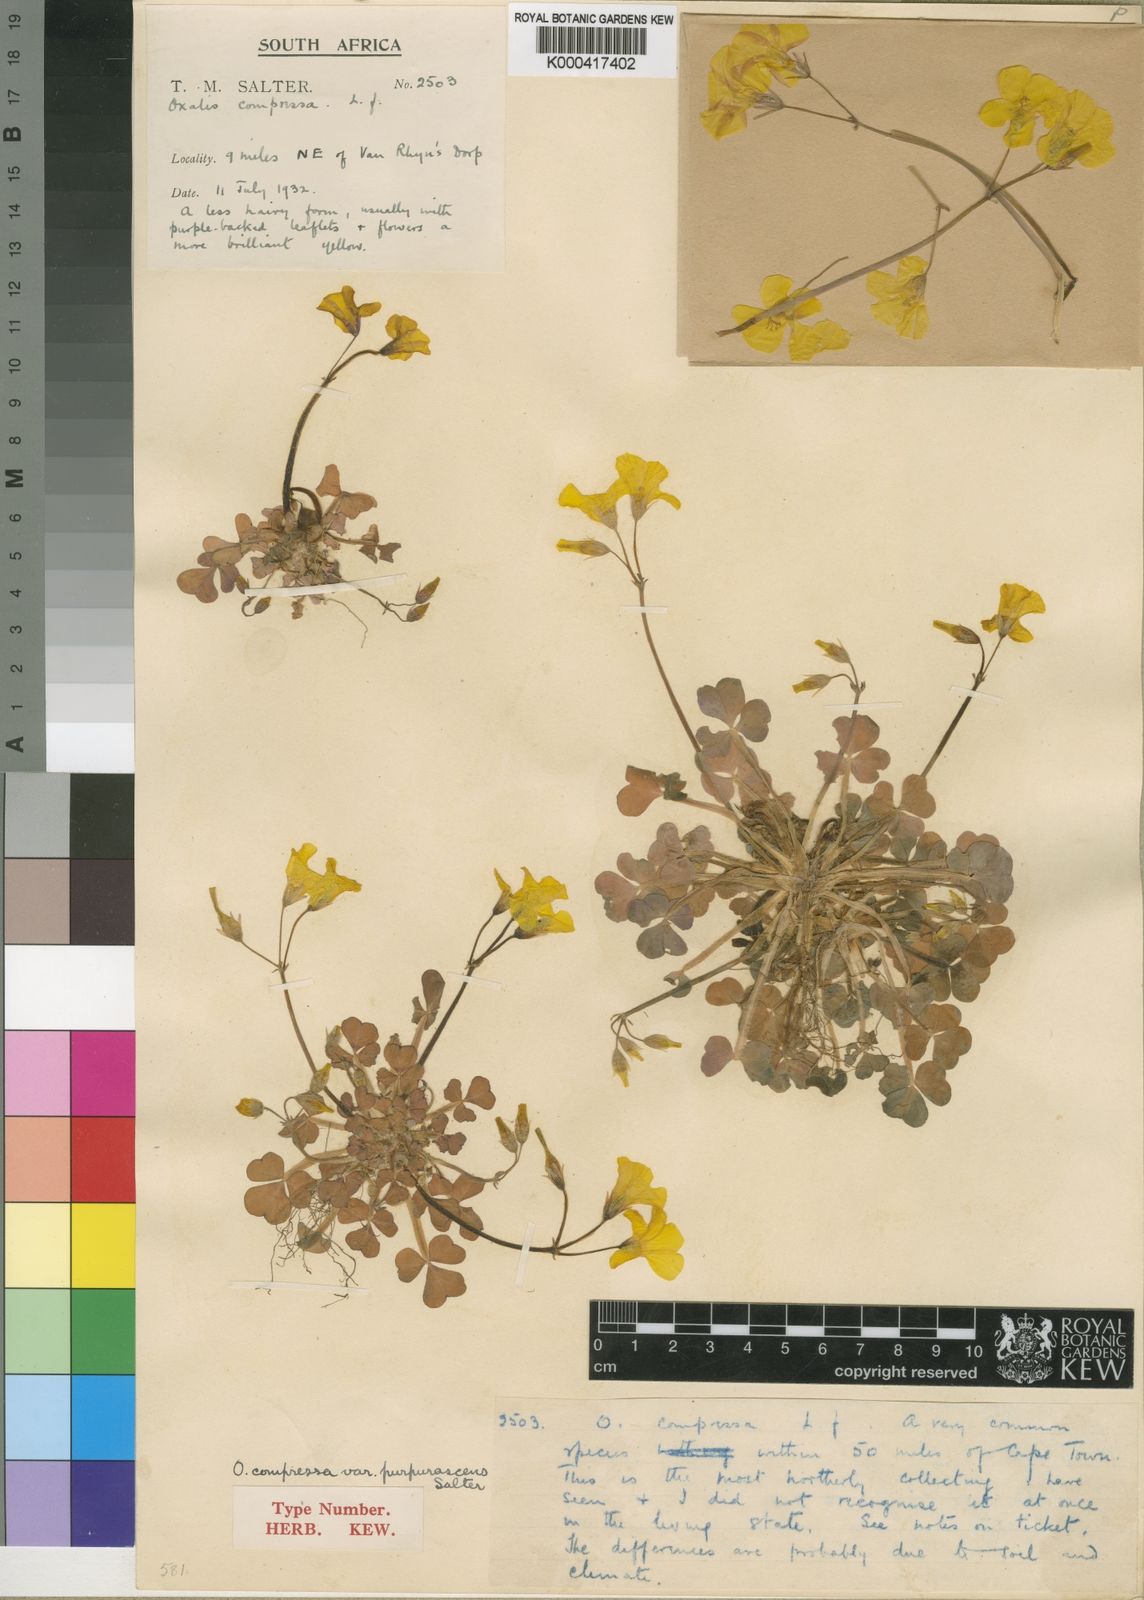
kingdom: Plantae
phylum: Tracheophyta
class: Magnoliopsida
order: Oxalidales
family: Oxalidaceae
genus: Oxalis
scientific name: Oxalis
